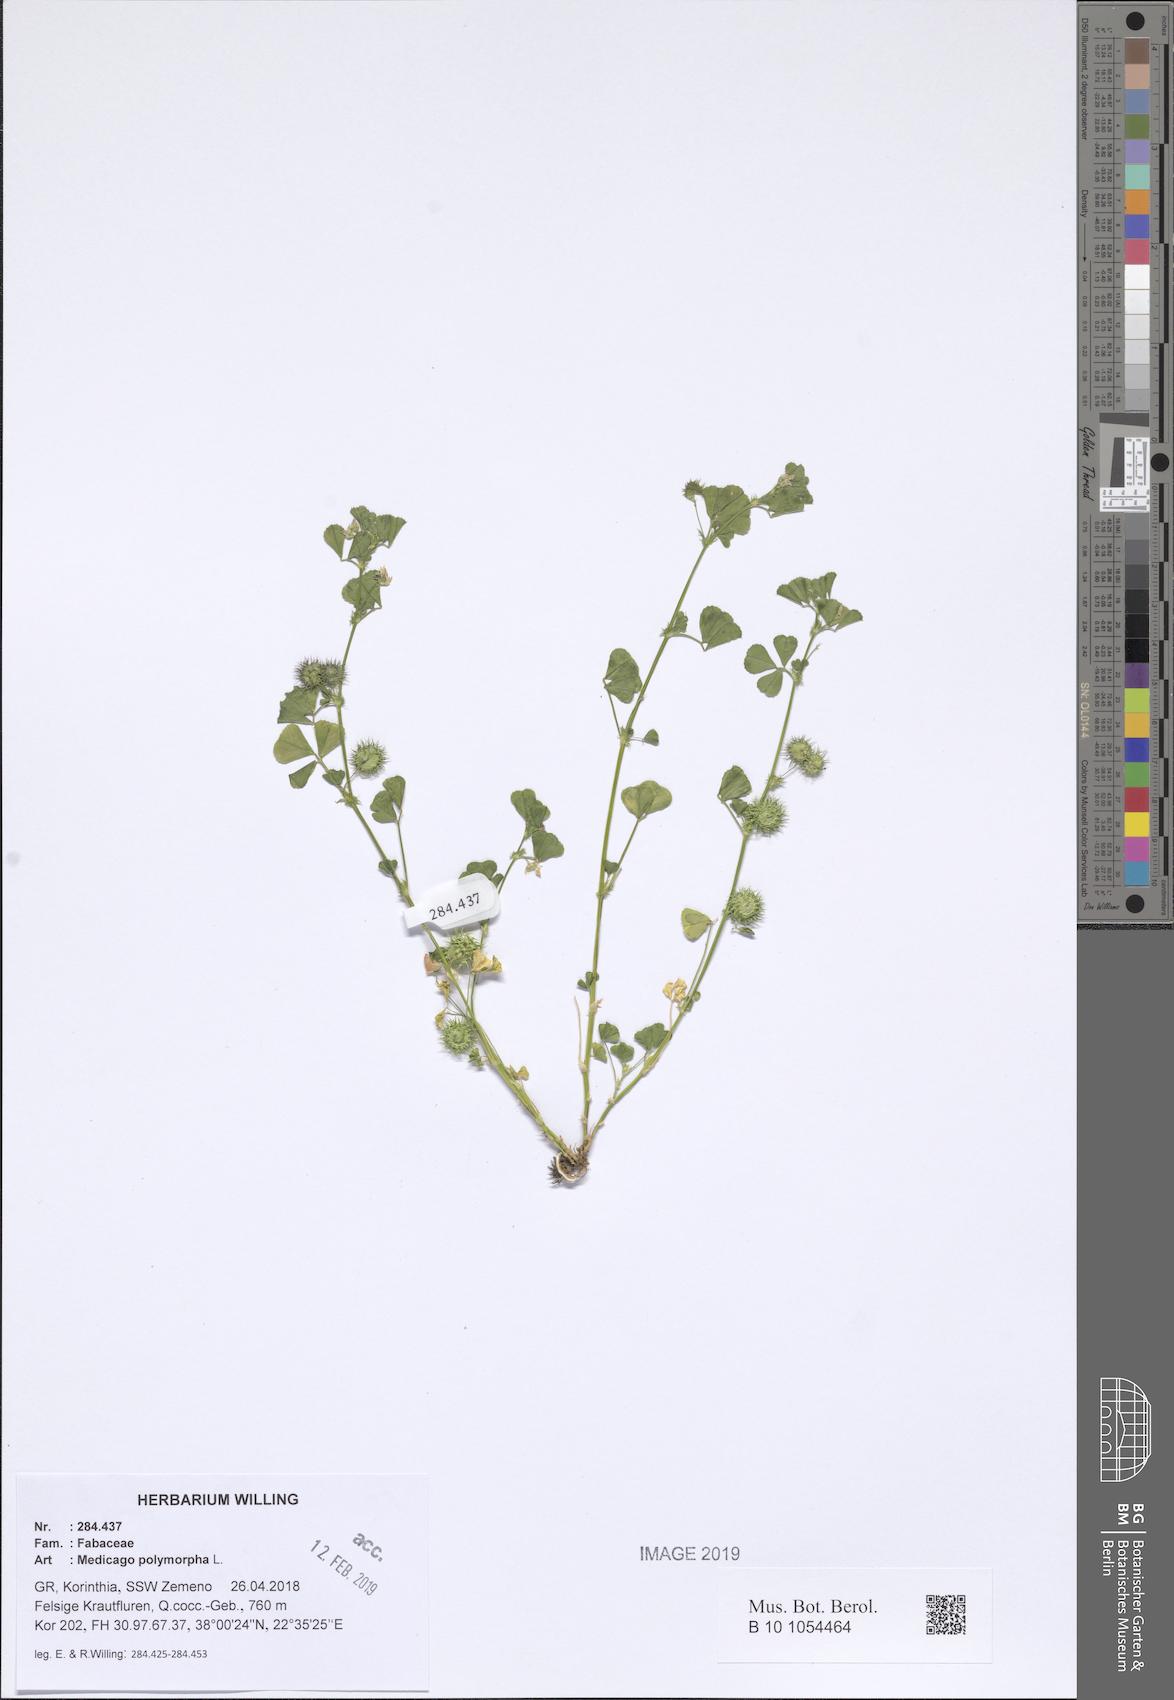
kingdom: Plantae
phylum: Tracheophyta
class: Magnoliopsida
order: Fabales
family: Fabaceae
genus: Medicago
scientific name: Medicago polymorpha
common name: Burclover
